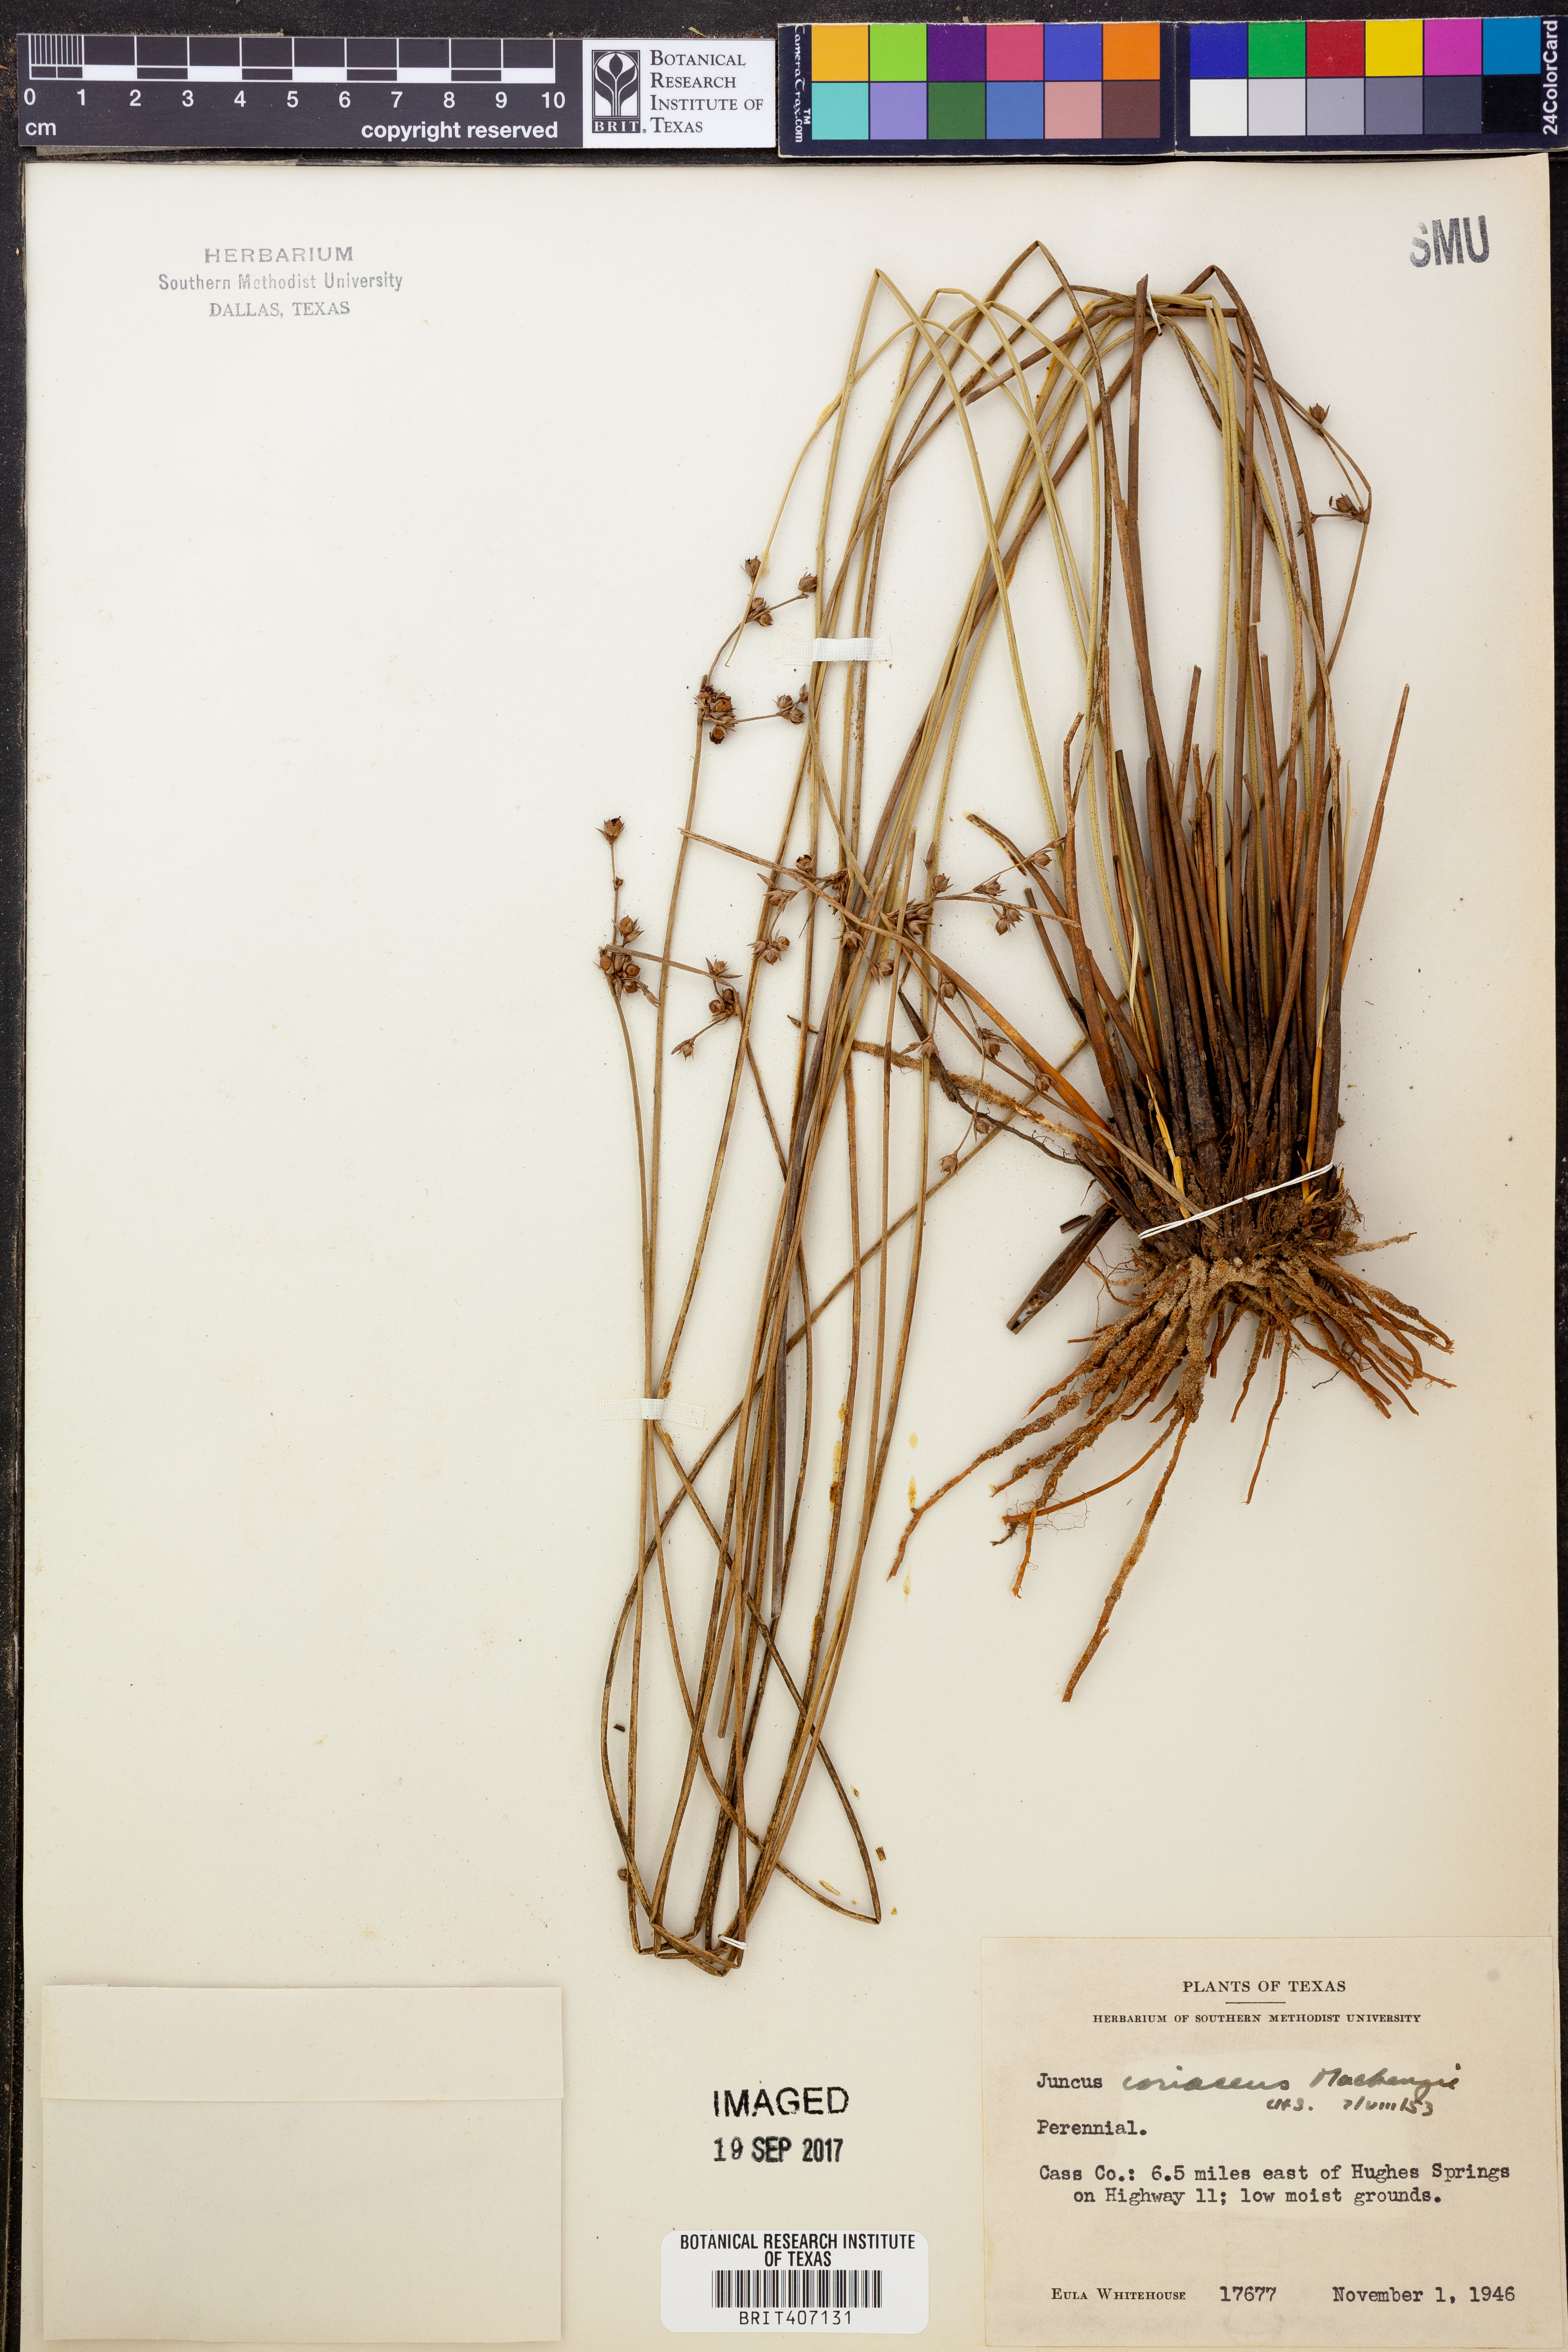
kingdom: Plantae
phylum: Tracheophyta
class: Liliopsida
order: Poales
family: Juncaceae
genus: Juncus
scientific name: Juncus coriaceus
